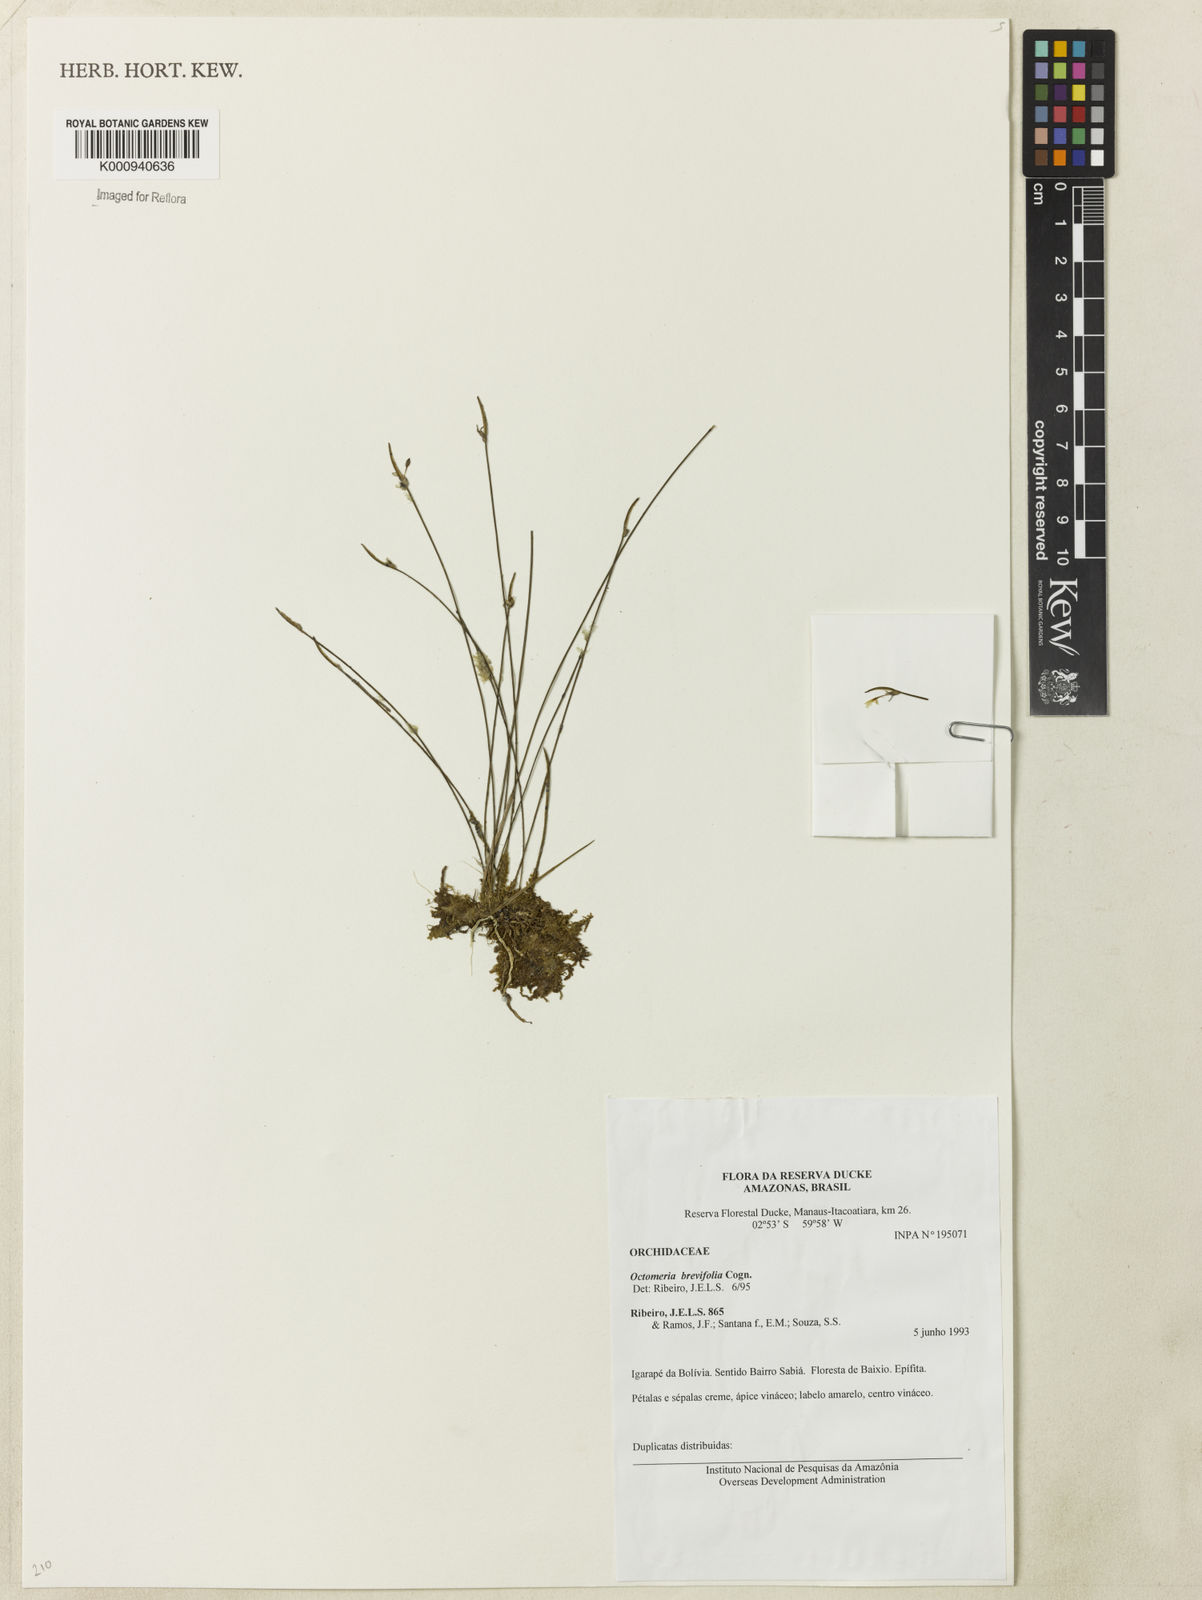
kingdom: Plantae
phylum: Tracheophyta
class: Liliopsida
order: Asparagales
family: Orchidaceae
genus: Octomeria
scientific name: Octomeria scirpoidea
